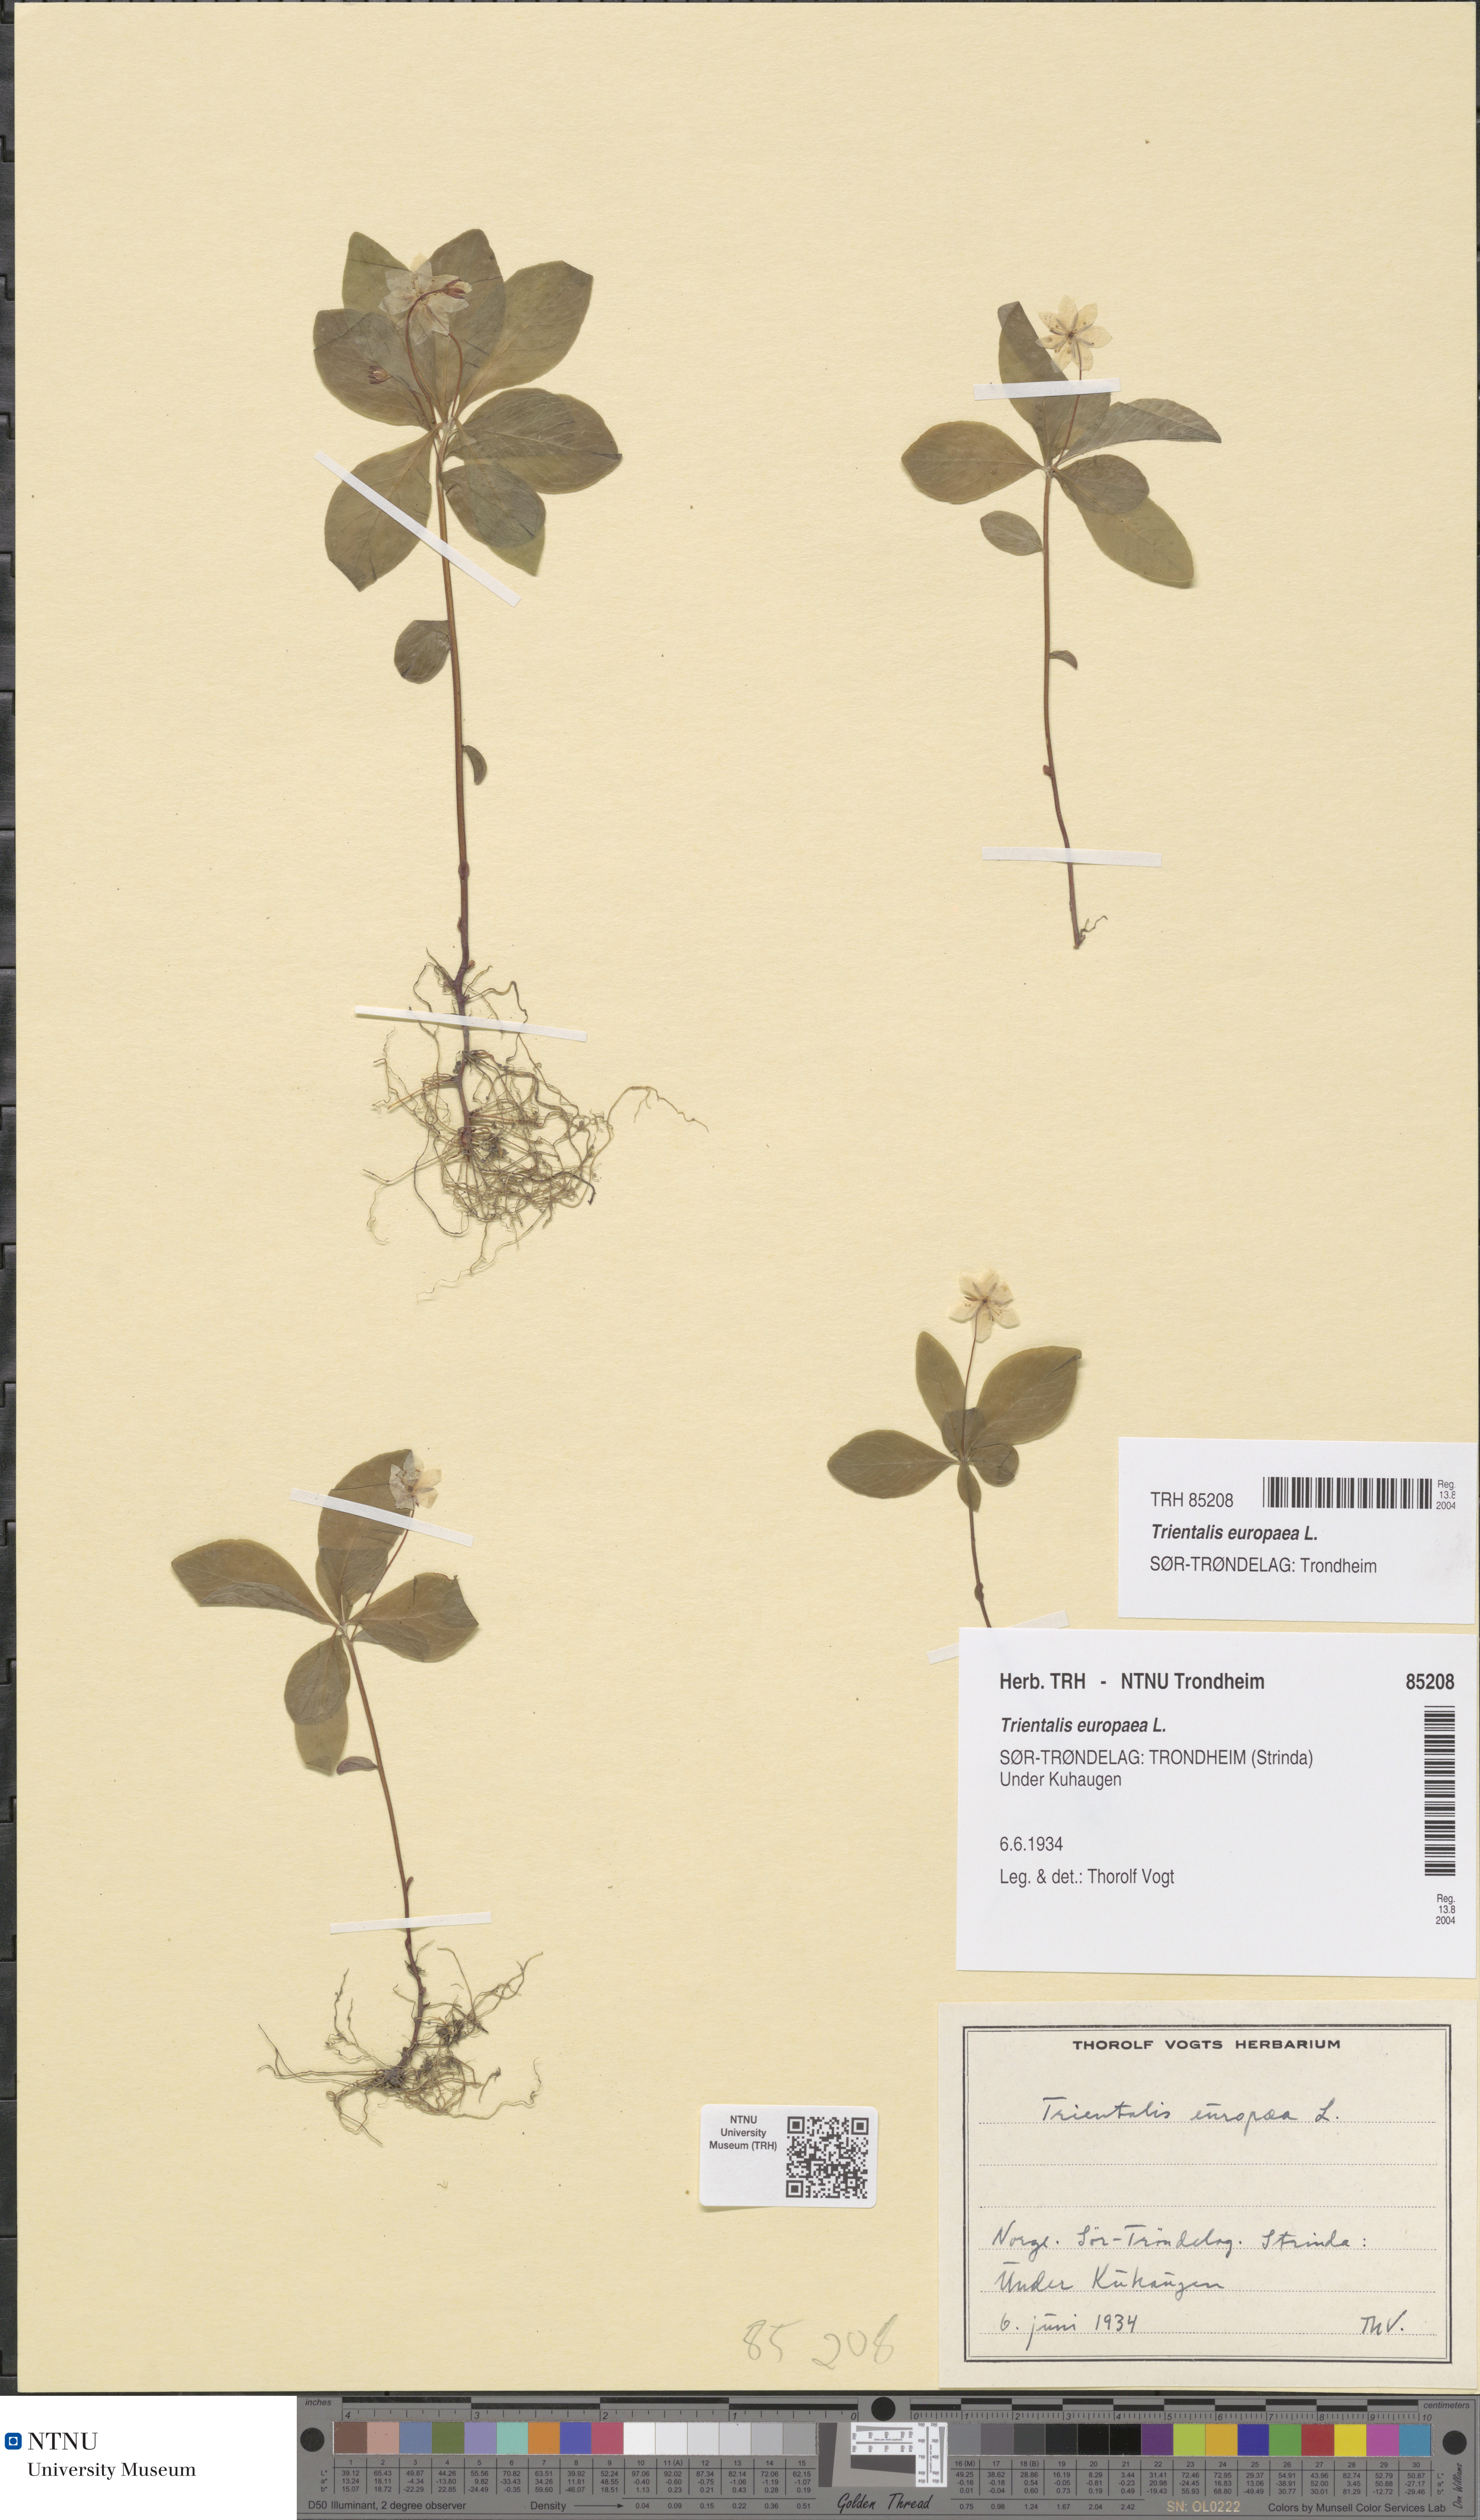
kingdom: Plantae
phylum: Tracheophyta
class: Magnoliopsida
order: Ericales
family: Primulaceae
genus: Lysimachia
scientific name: Lysimachia europaea
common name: Arctic starflower
